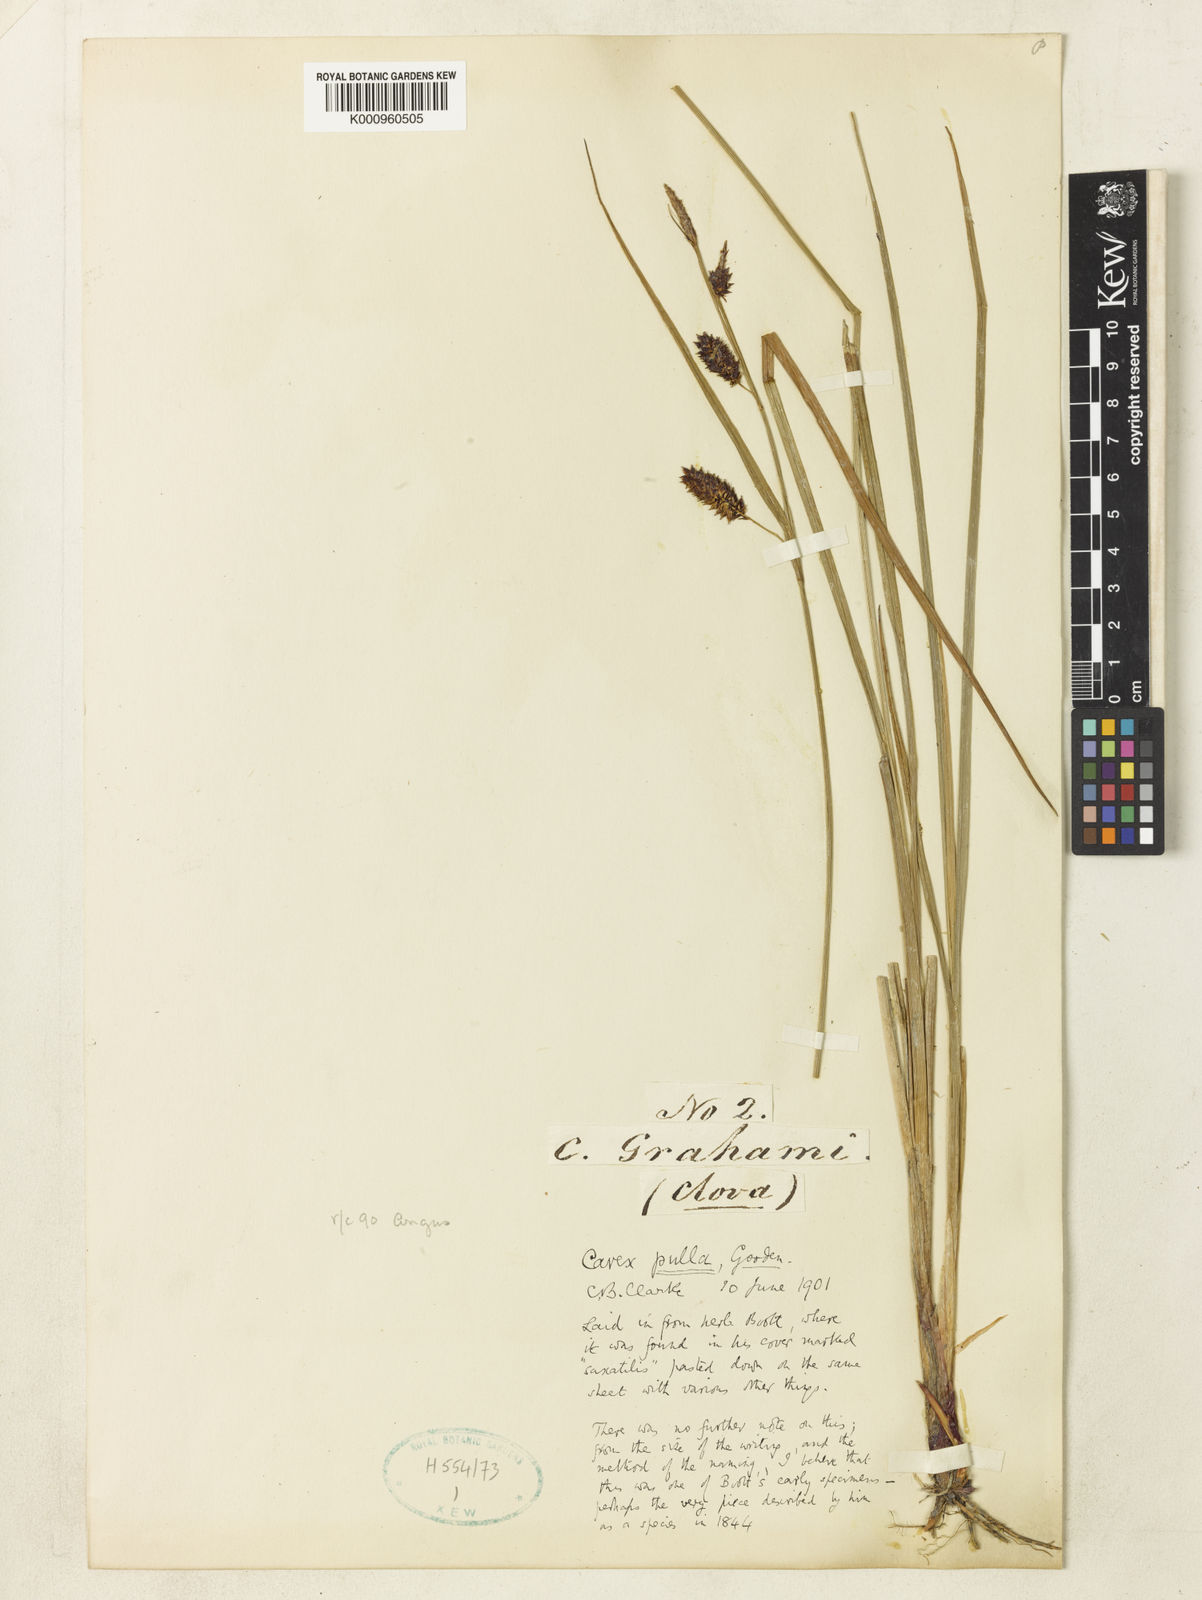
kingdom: Plantae
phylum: Tracheophyta
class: Liliopsida
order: Poales
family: Cyperaceae
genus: Carex
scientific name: Carex rostrata
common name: Bottle sedge
